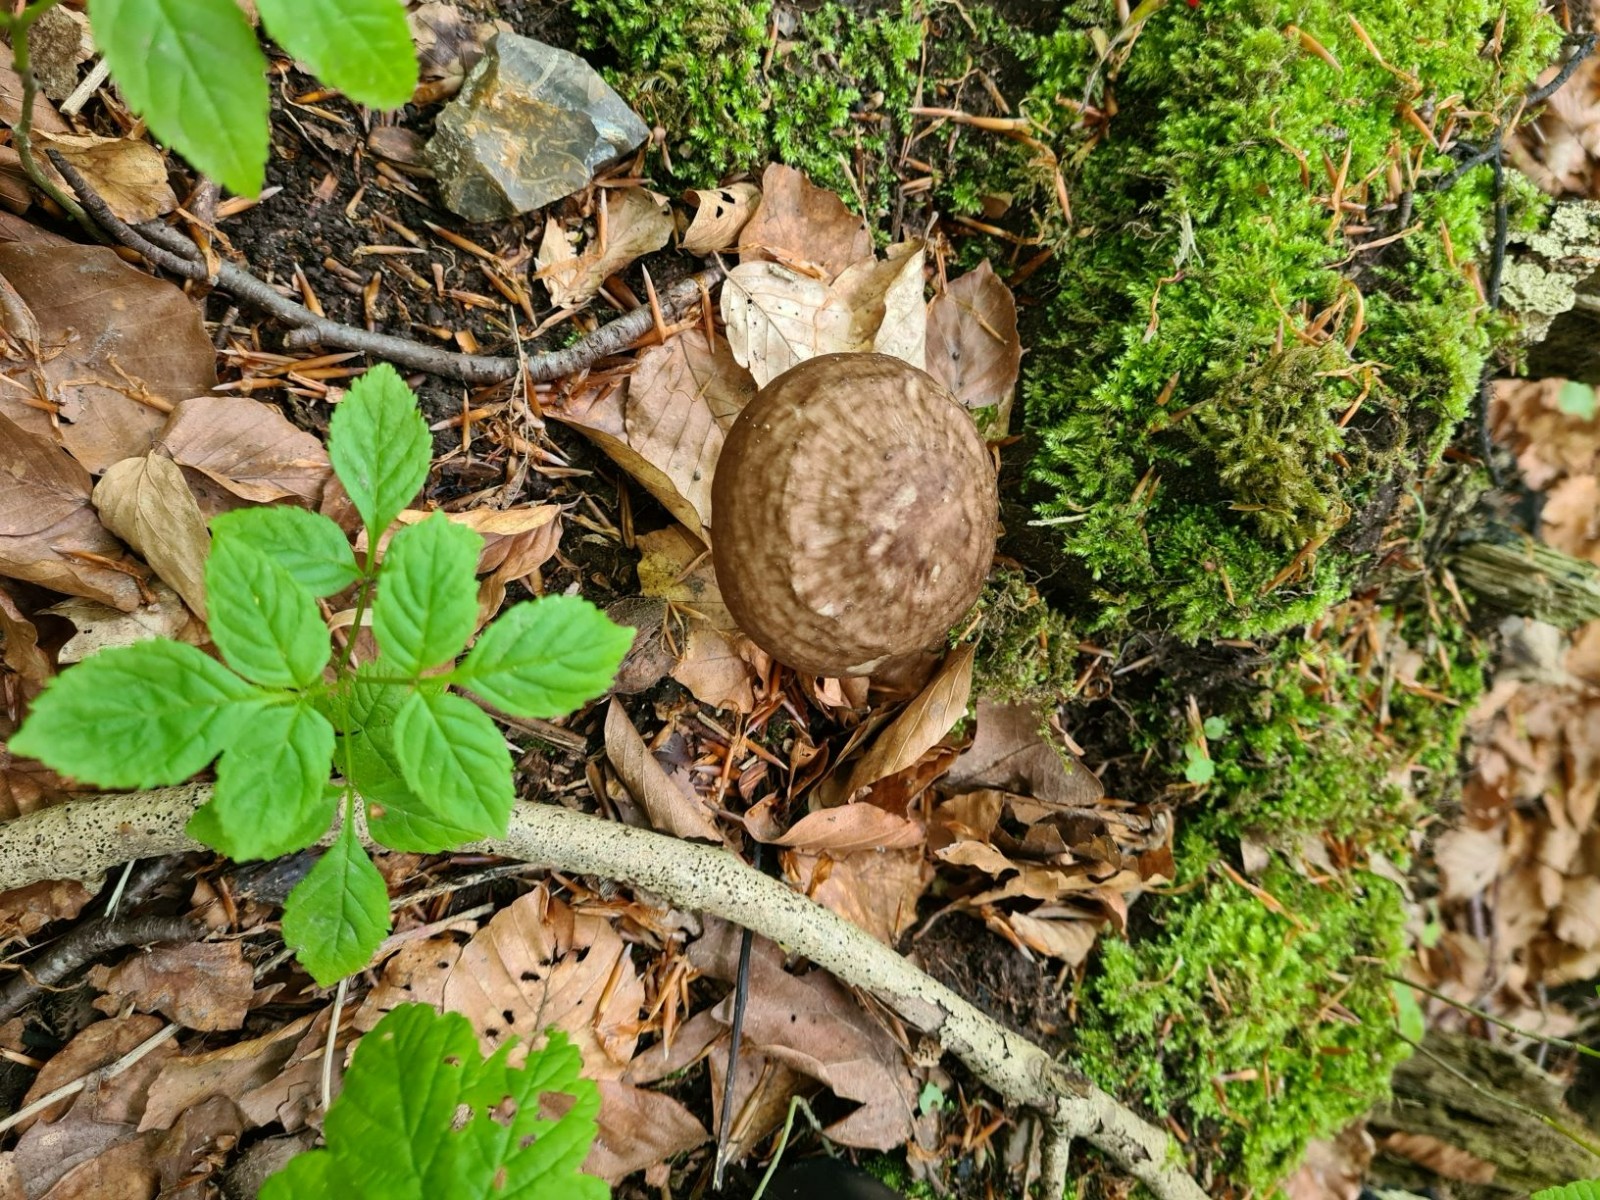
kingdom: Fungi
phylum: Basidiomycota
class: Agaricomycetes
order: Agaricales
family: Pluteaceae
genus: Pluteus
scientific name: Pluteus cervinus
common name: sodfarvet skærmhat
